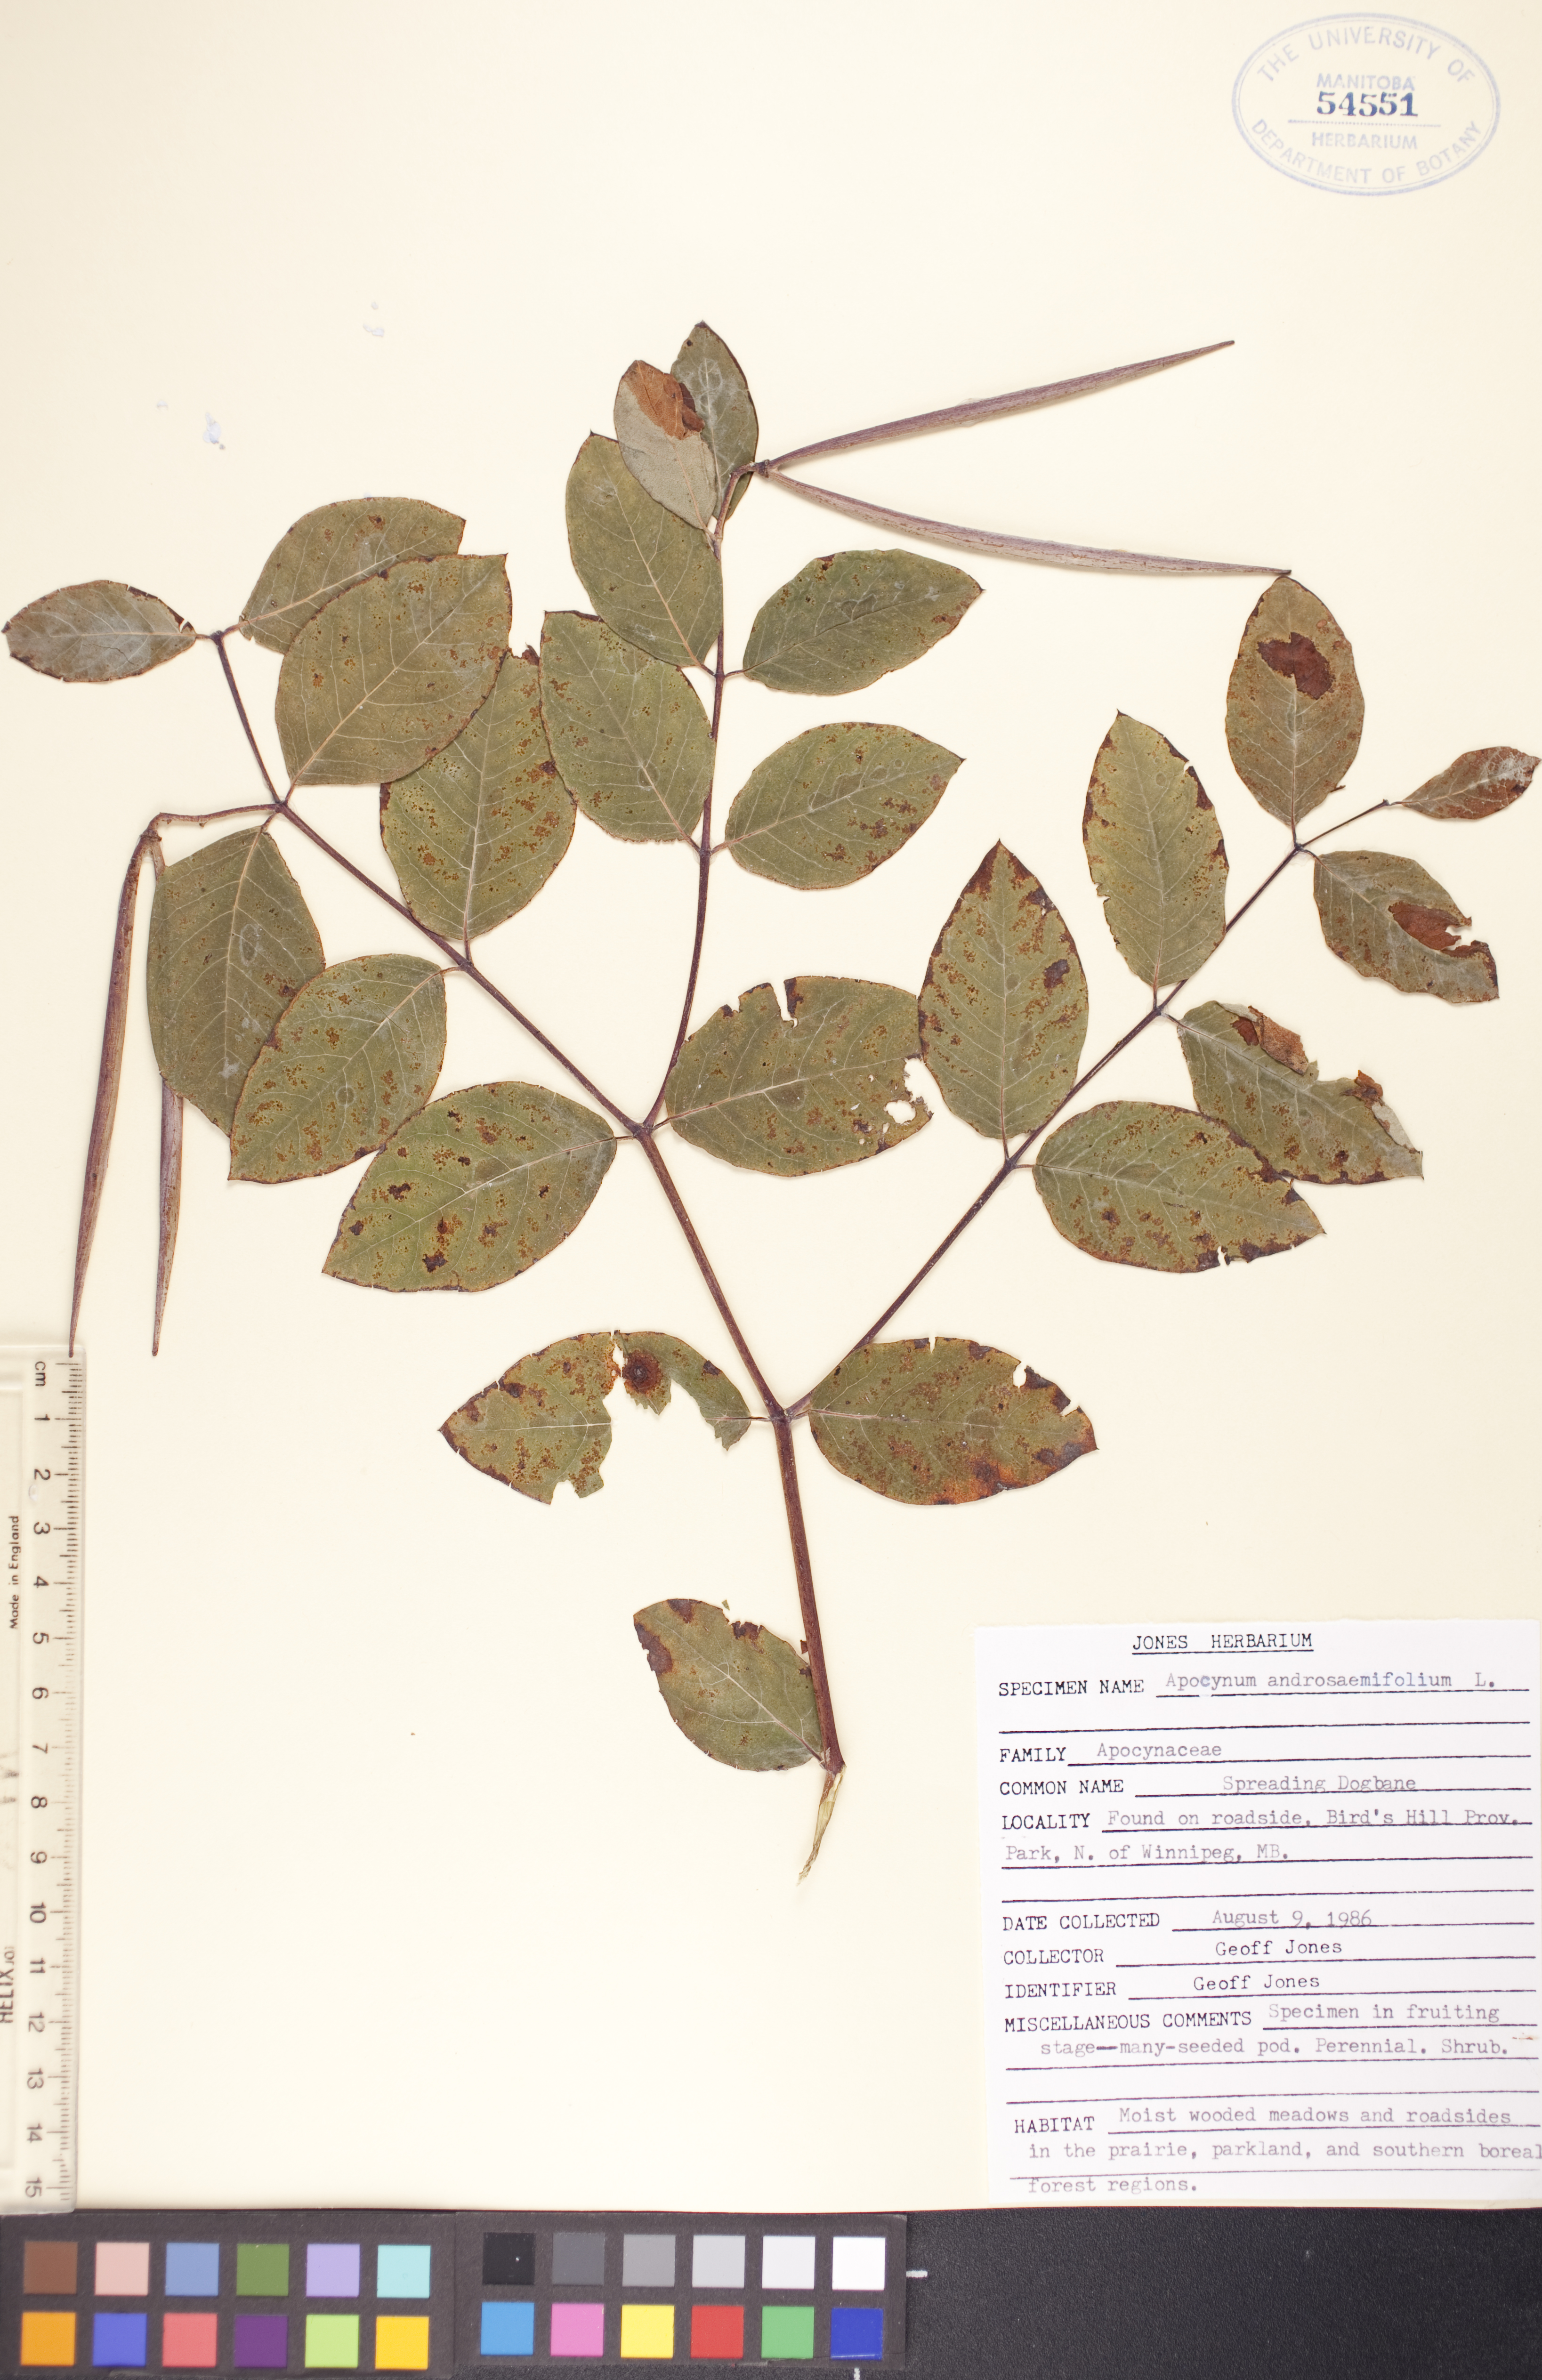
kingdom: Plantae
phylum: Tracheophyta
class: Magnoliopsida
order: Gentianales
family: Apocynaceae
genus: Apocynum
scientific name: Apocynum androsaemifolium
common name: Spreading dogbane
